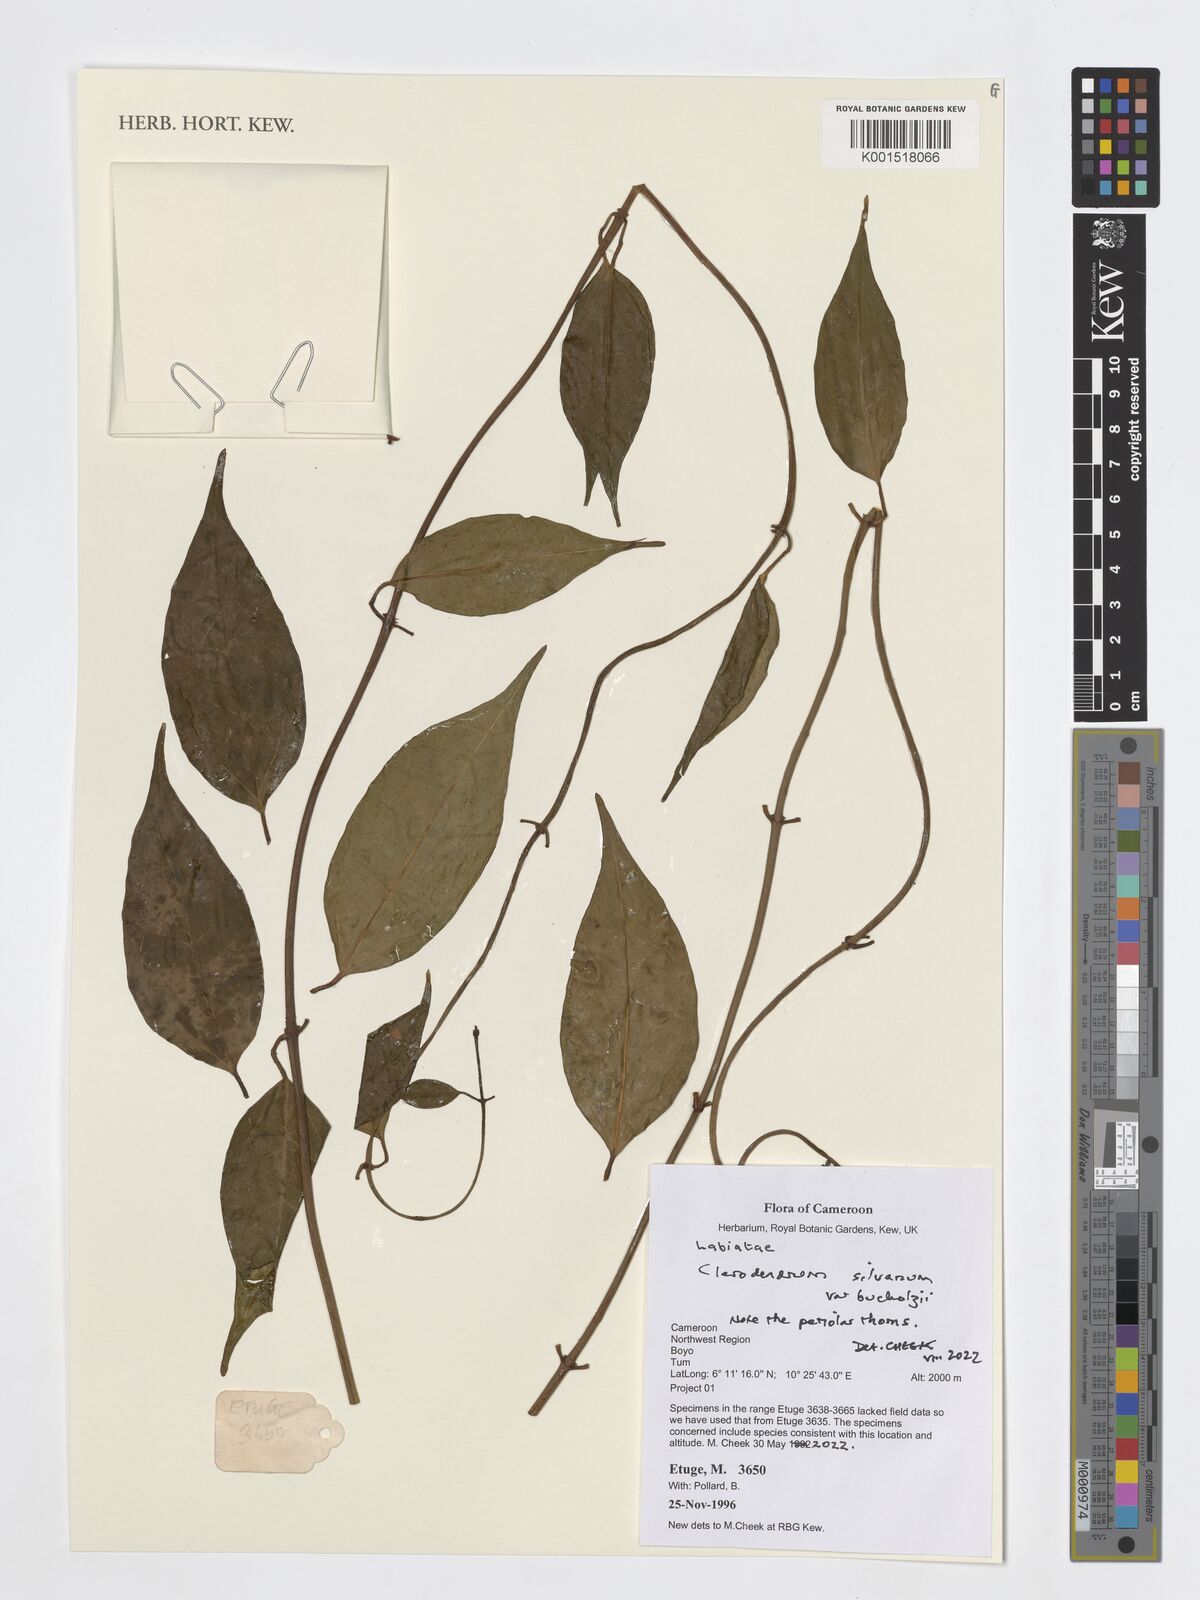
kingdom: Plantae
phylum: Tracheophyta
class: Magnoliopsida
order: Lamiales
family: Lamiaceae
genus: Clerodendrum
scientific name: Clerodendrum silvanum
